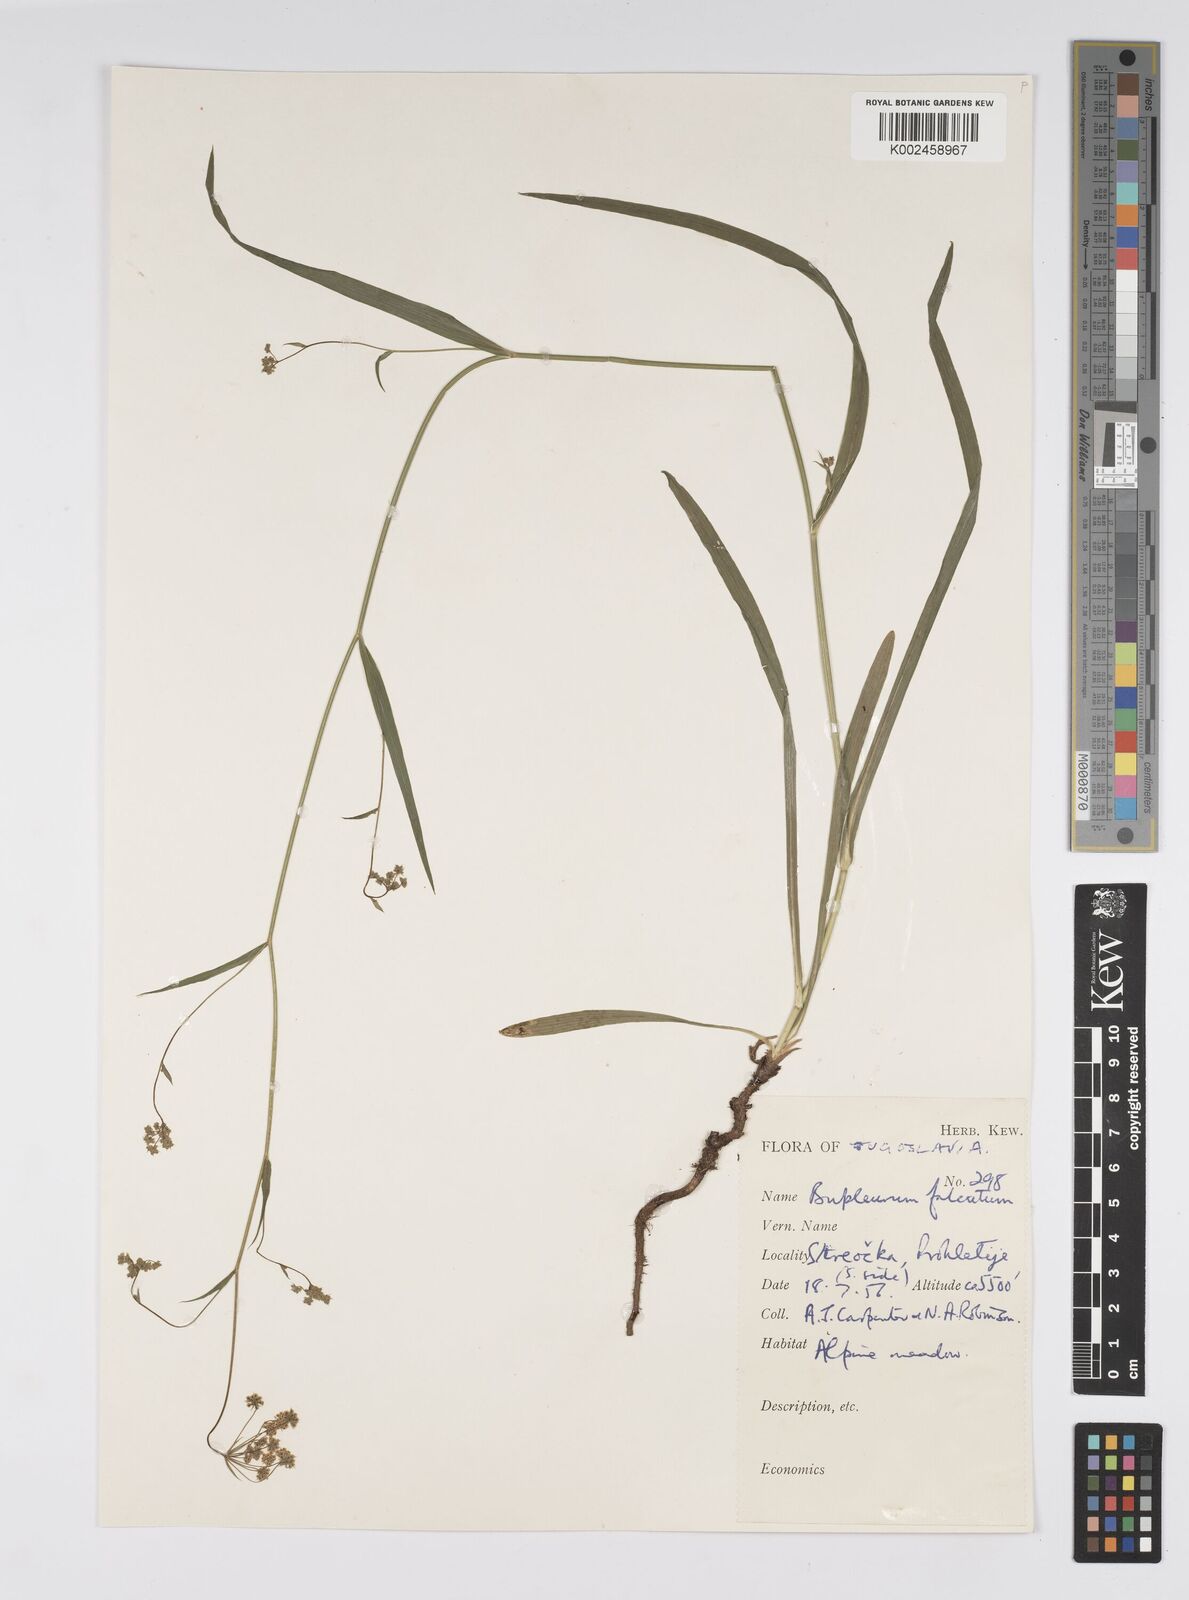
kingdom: Plantae
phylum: Tracheophyta
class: Magnoliopsida
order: Apiales
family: Apiaceae
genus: Bupleurum
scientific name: Bupleurum falcatum
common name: Sickle-leaved hare's-ear
